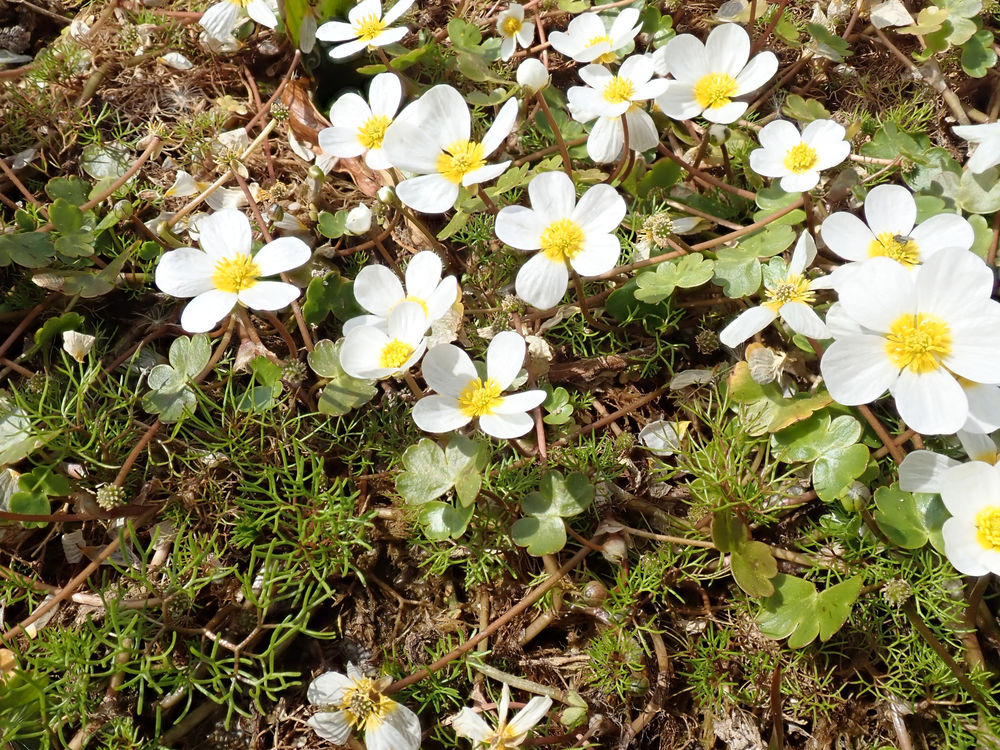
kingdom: Plantae
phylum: Tracheophyta
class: Magnoliopsida
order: Ranunculales
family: Ranunculaceae
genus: Ranunculus
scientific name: Ranunculus peltatus
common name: Storblomstret vandranunkel
